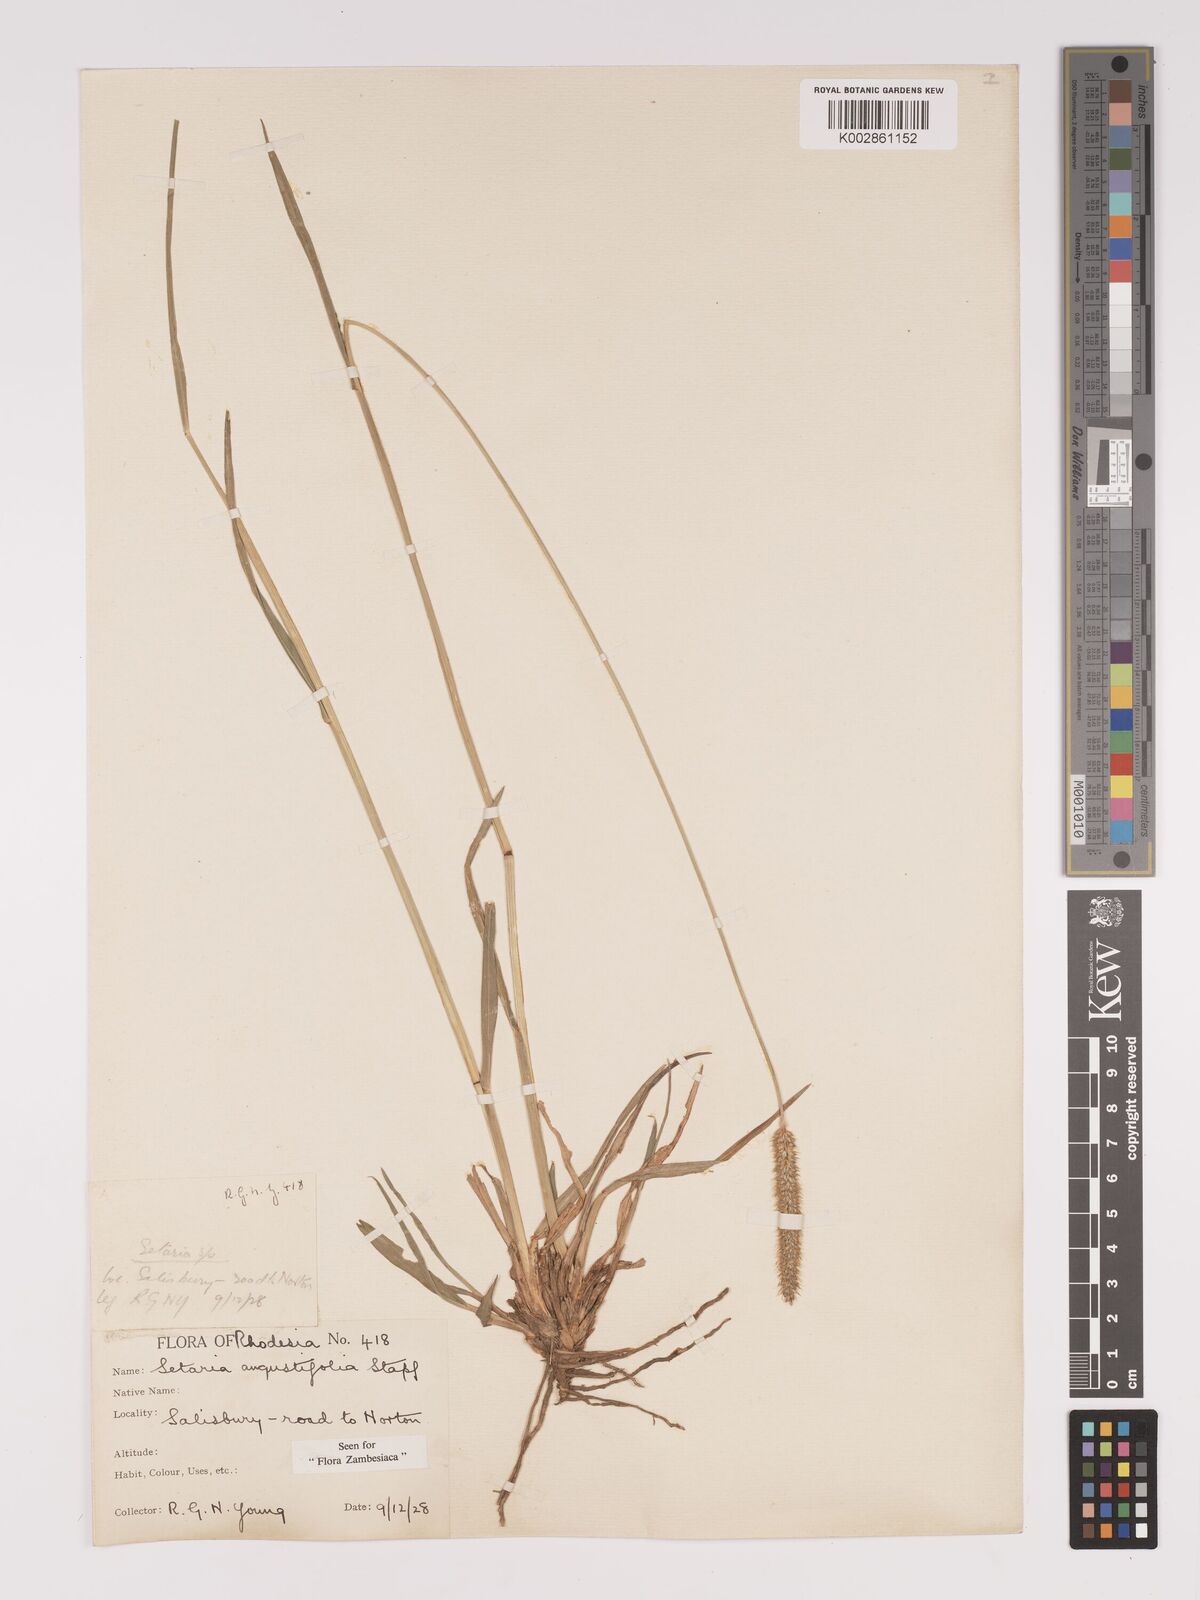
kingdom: Plantae
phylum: Tracheophyta
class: Liliopsida
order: Poales
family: Poaceae
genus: Setaria
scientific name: Setaria sphacelata
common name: African bristlegrass
